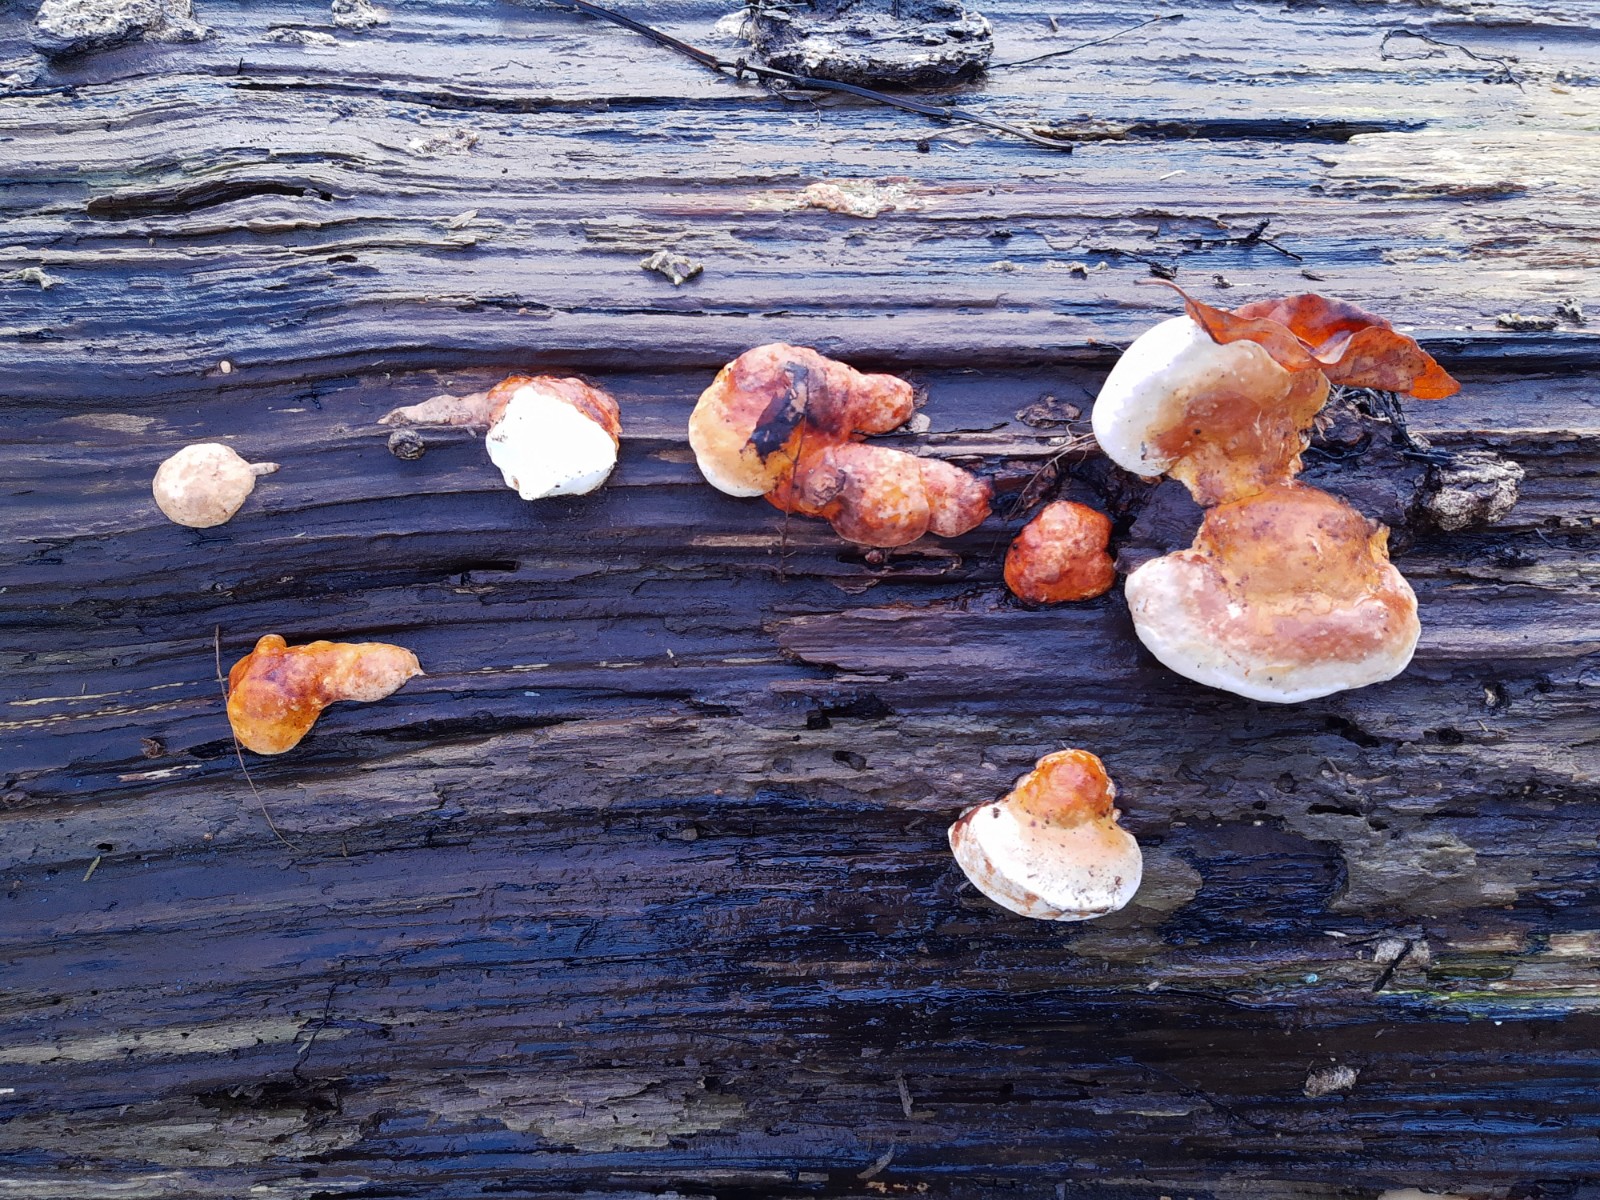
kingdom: Fungi
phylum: Basidiomycota
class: Agaricomycetes
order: Polyporales
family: Fomitopsidaceae
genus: Fomitopsis
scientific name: Fomitopsis pinicola
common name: randbæltet hovporesvamp
